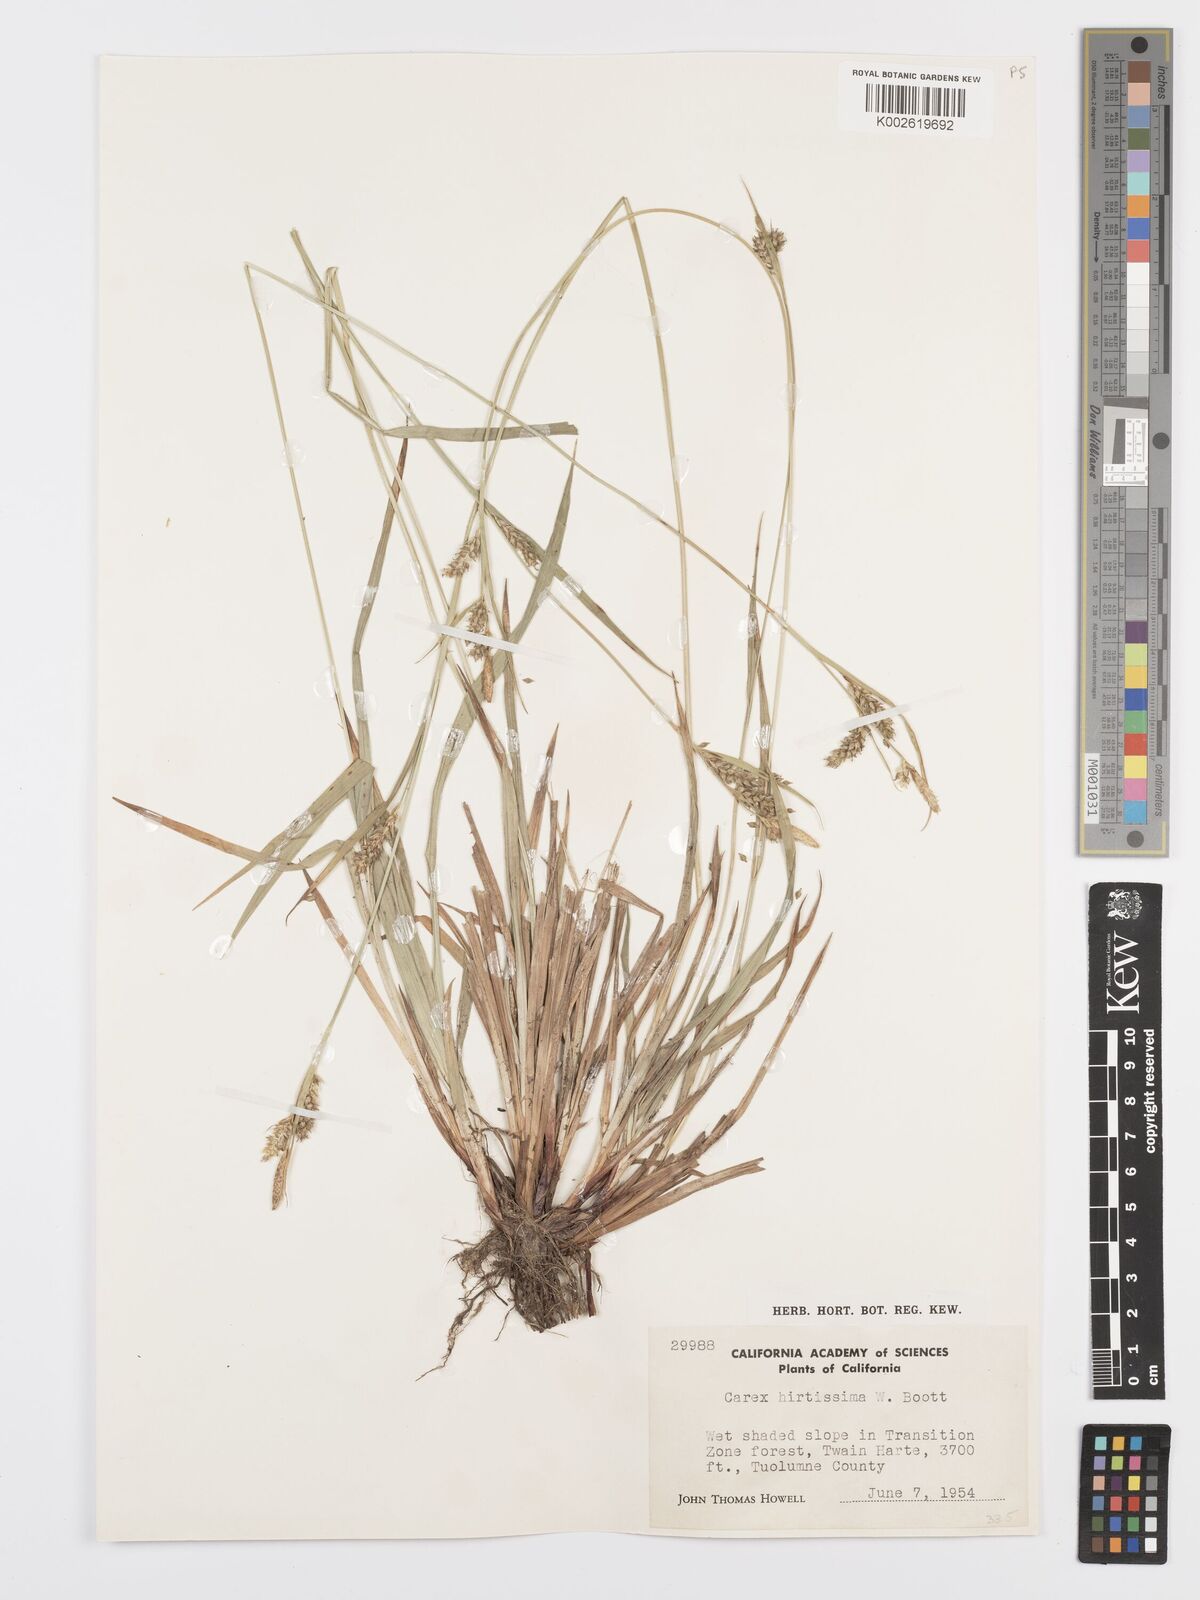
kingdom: Plantae
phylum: Tracheophyta
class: Liliopsida
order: Poales
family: Cyperaceae
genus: Carex
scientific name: Carex hirtissima
